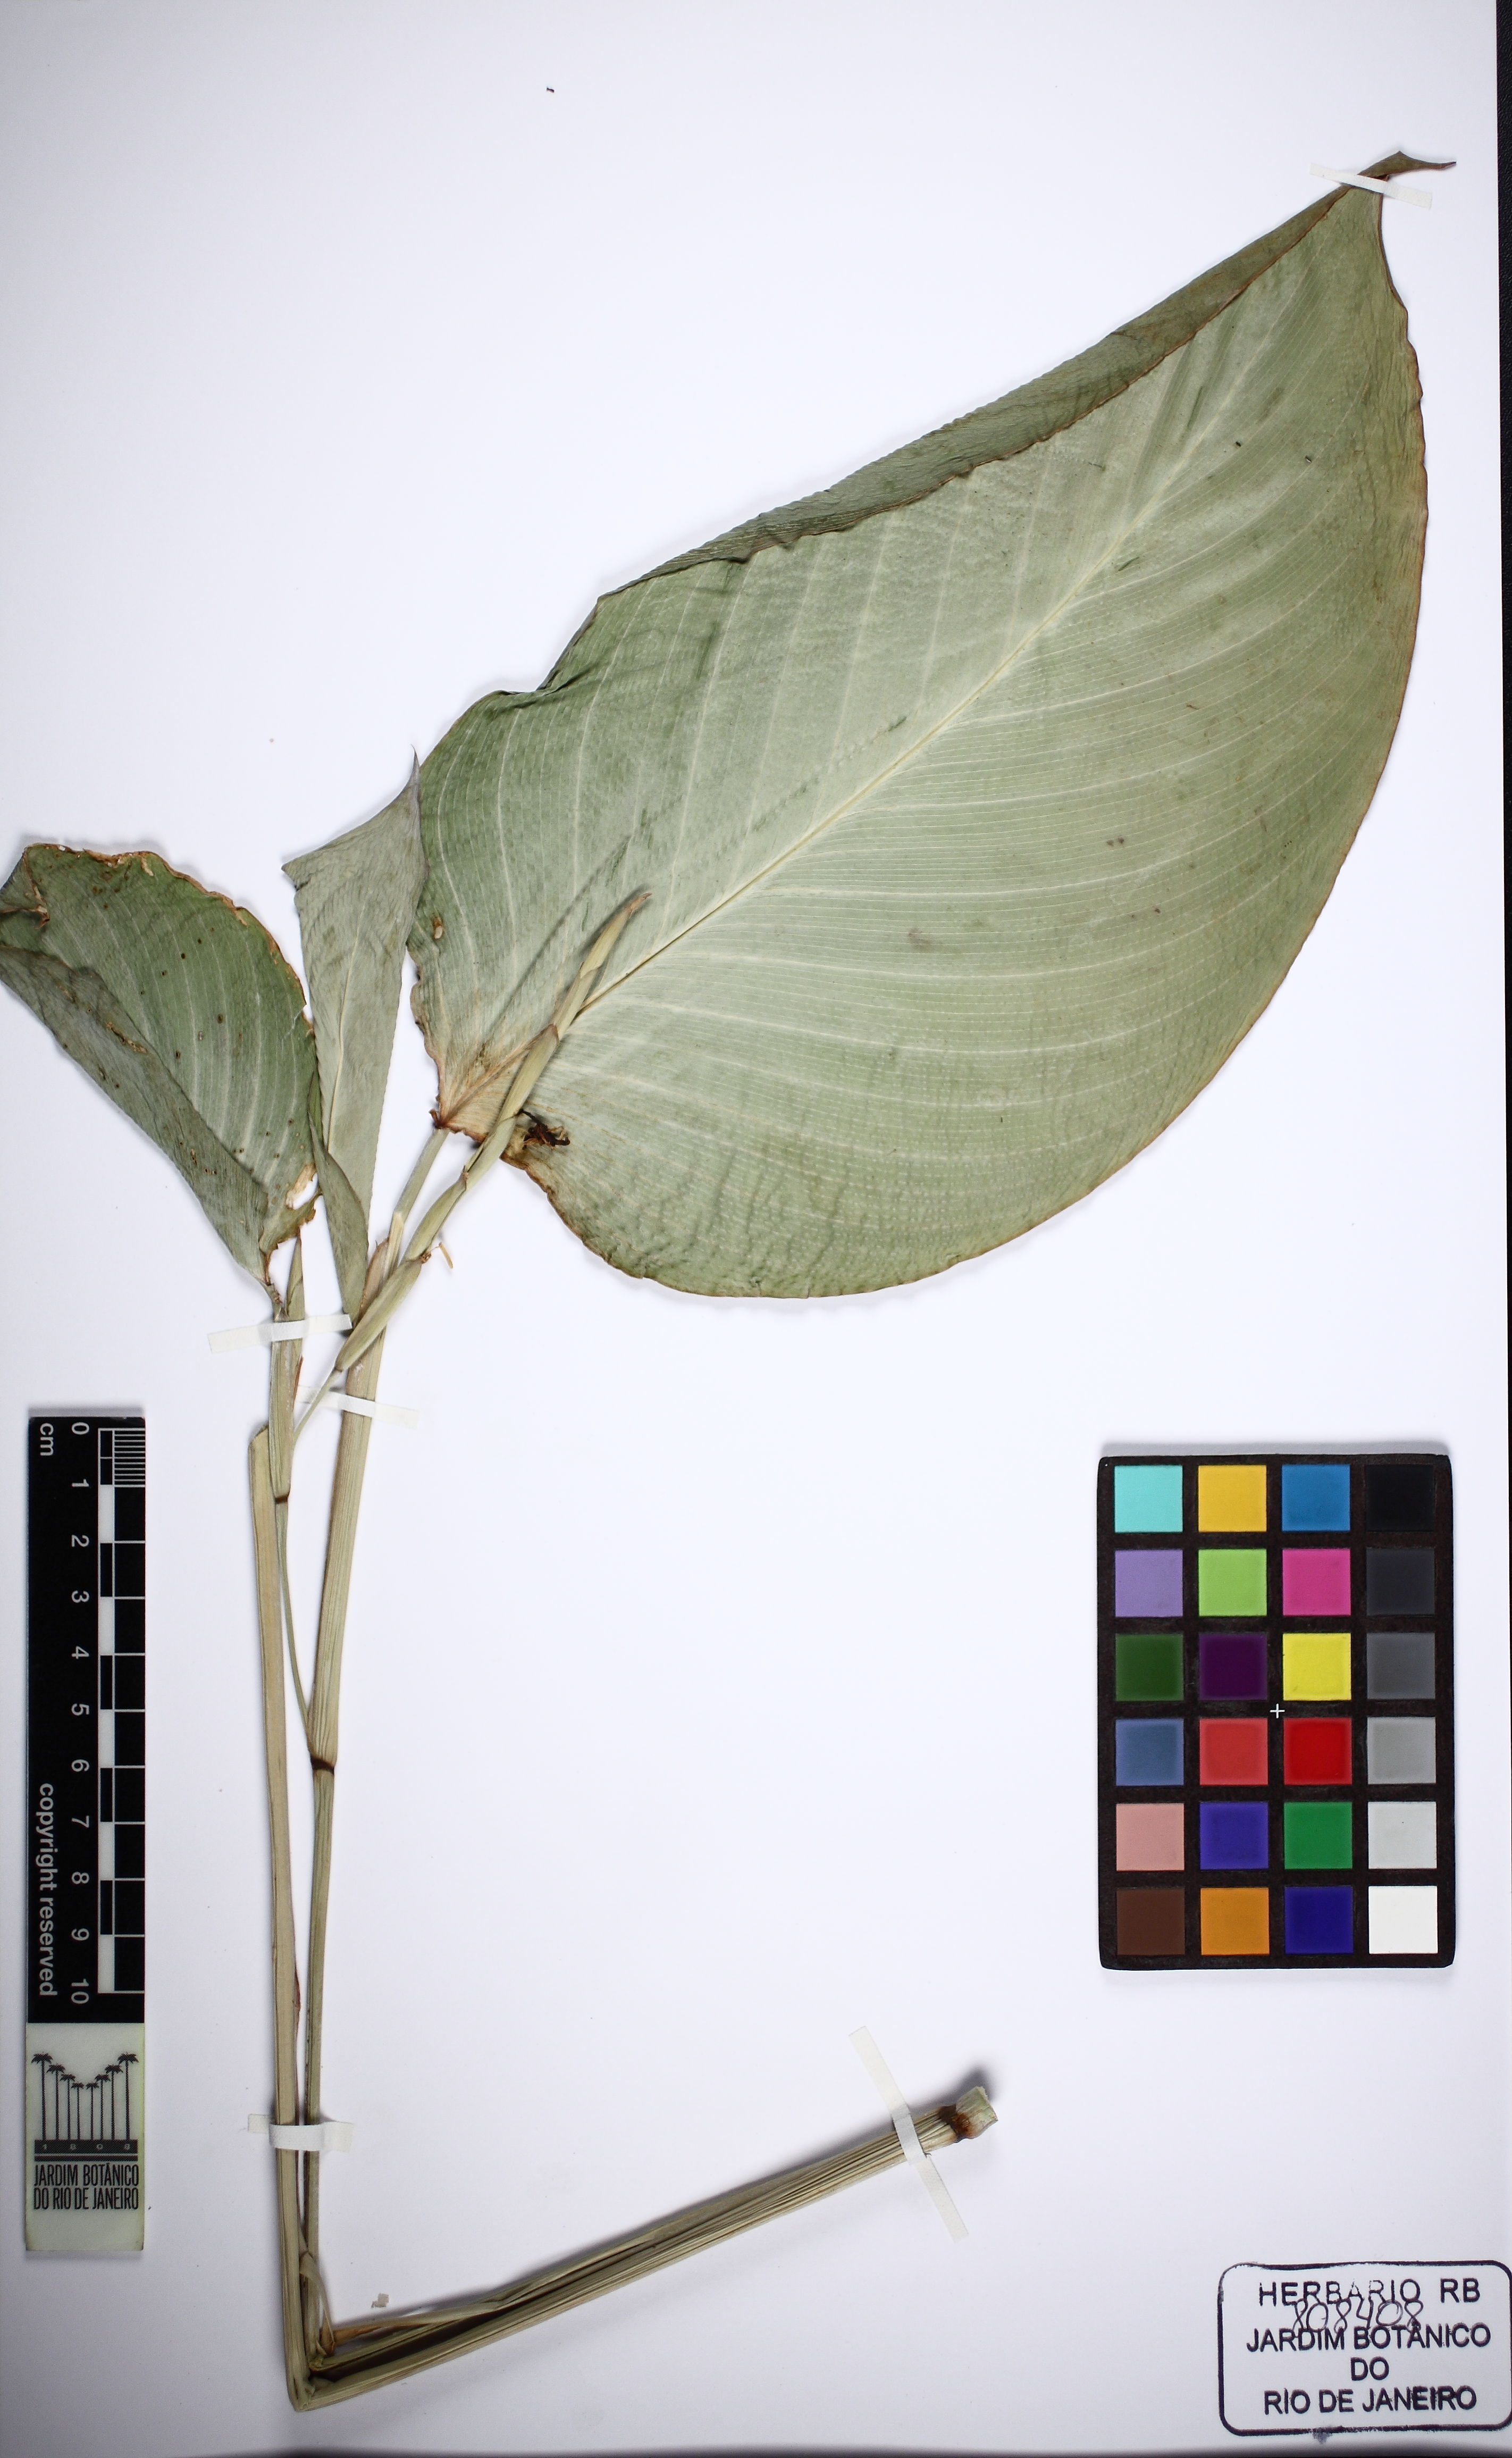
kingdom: Plantae
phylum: Tracheophyta
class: Liliopsida
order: Zingiberales
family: Marantaceae
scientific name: Marantaceae
